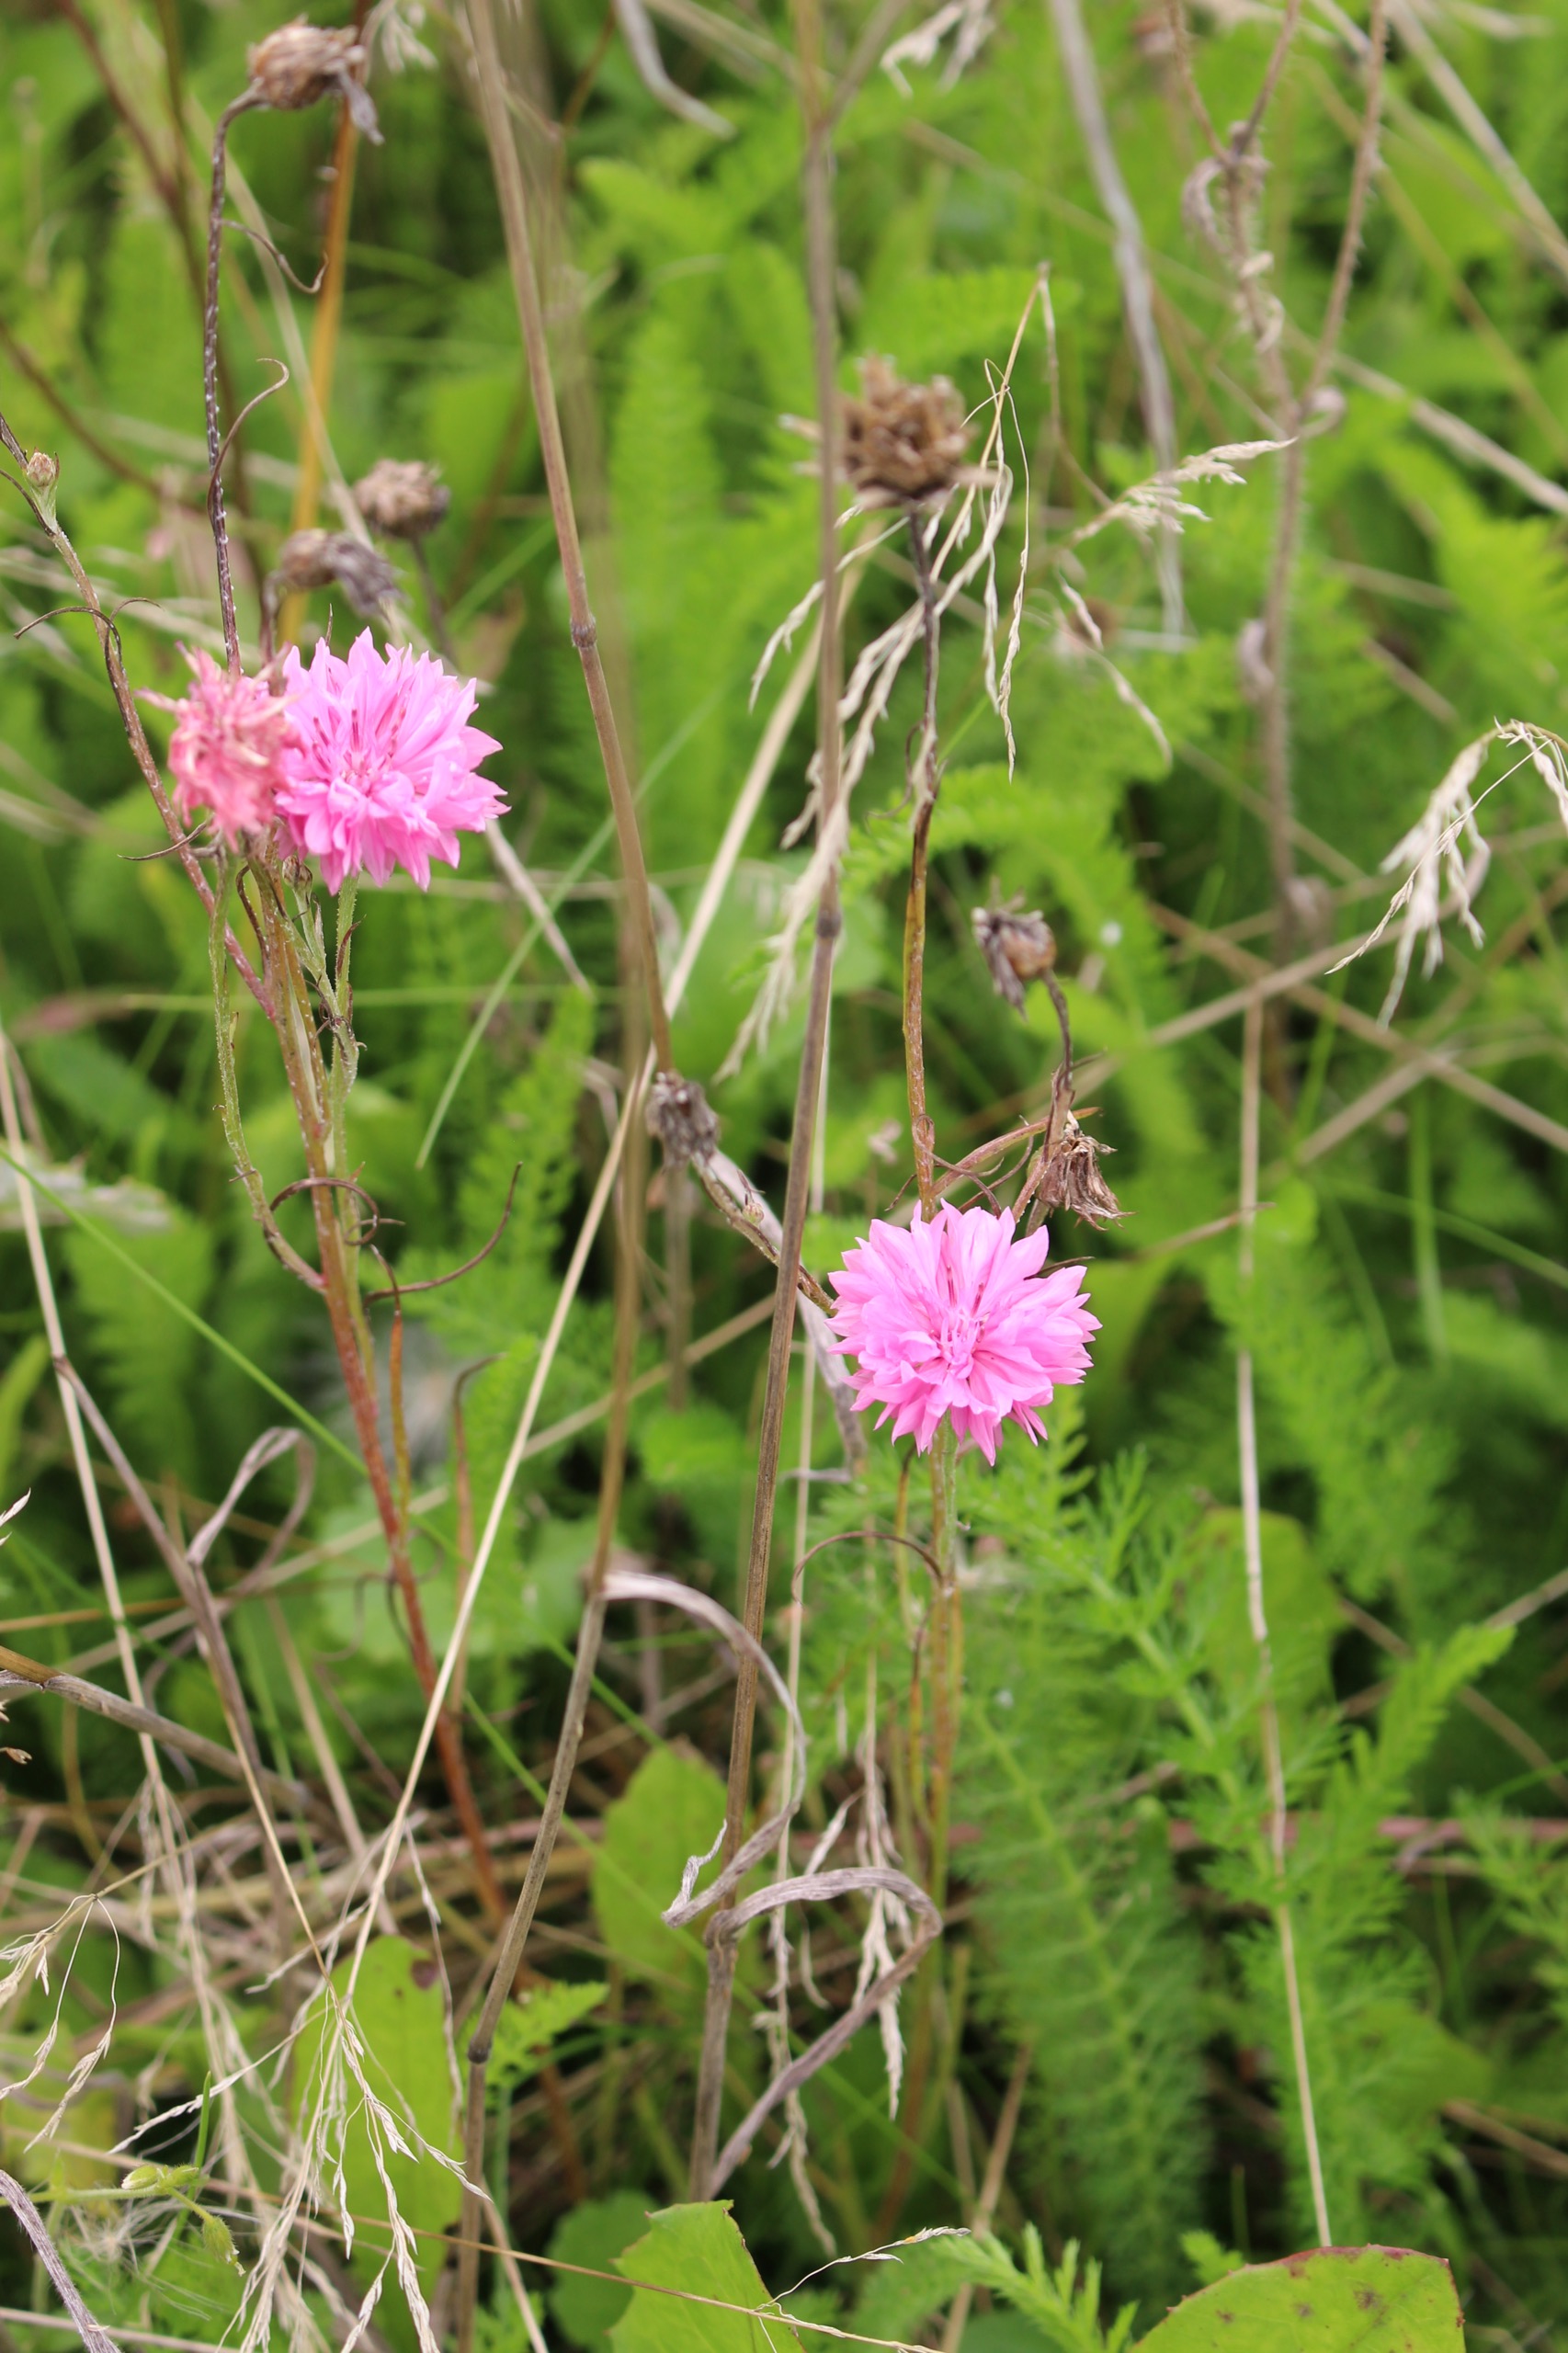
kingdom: Plantae
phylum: Tracheophyta
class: Magnoliopsida
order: Asterales
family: Asteraceae
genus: Centaurea
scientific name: Centaurea cyanus
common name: Kornblomst
